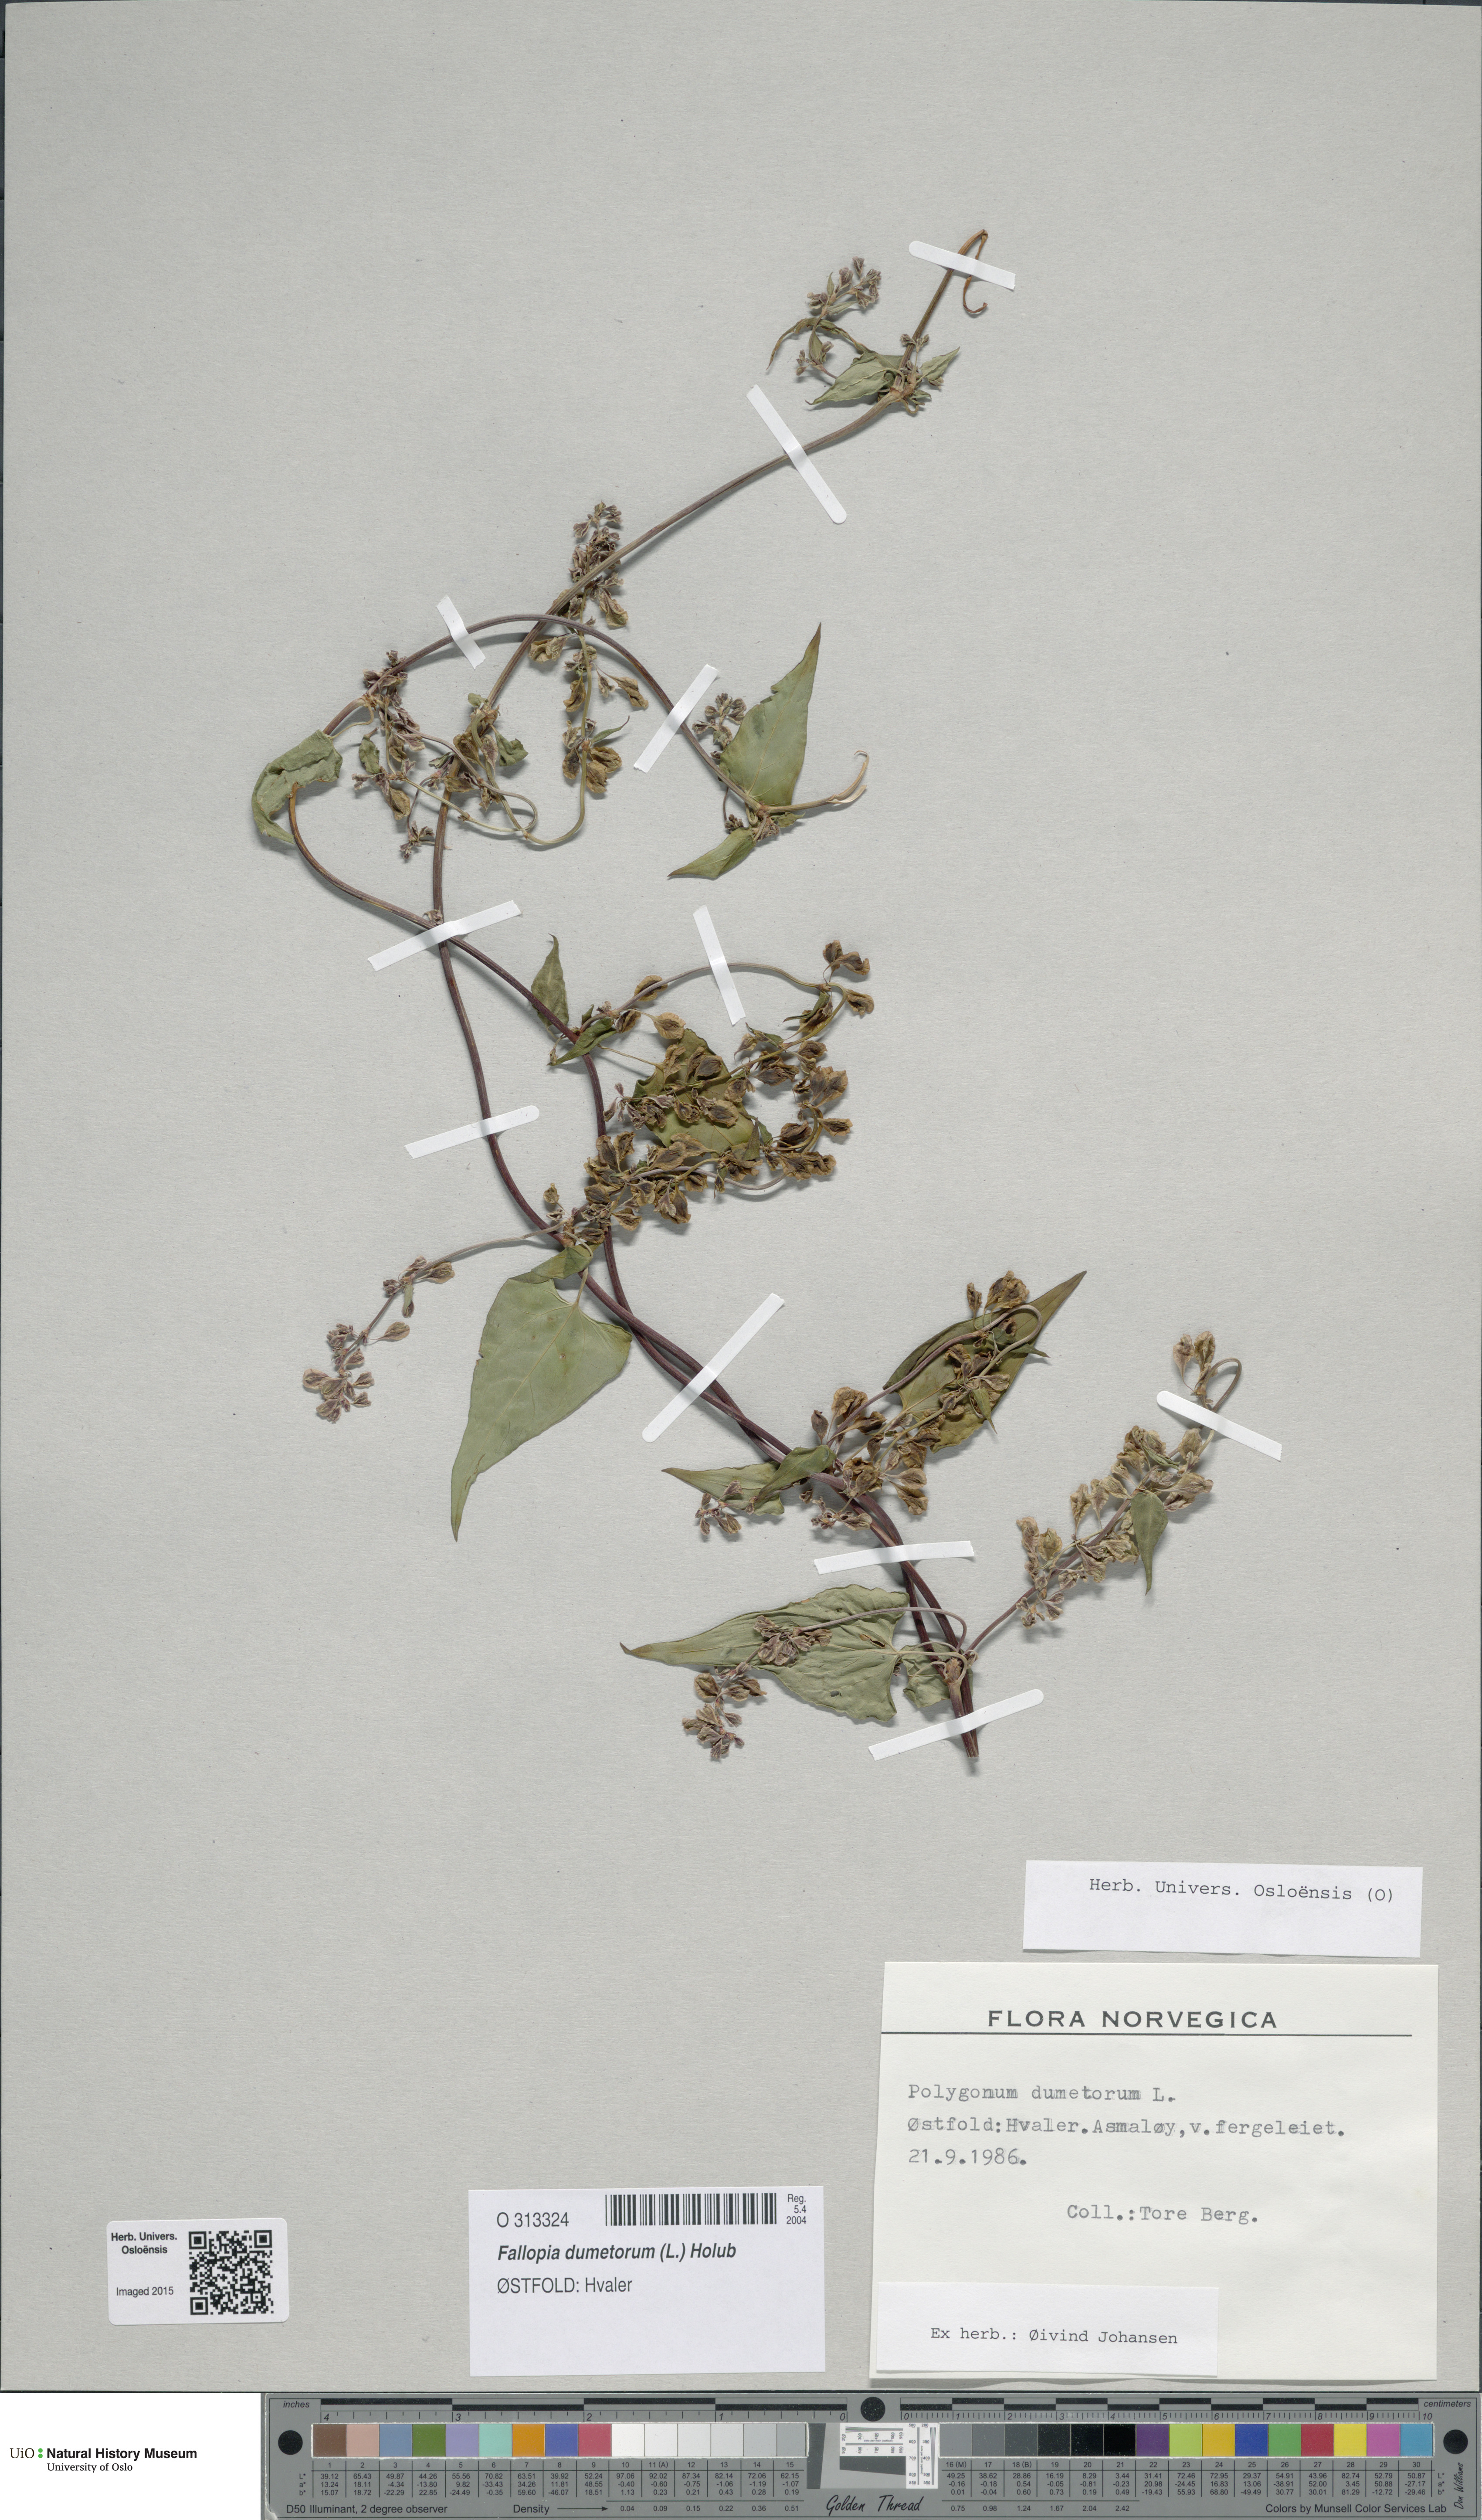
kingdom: Plantae
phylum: Tracheophyta
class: Magnoliopsida
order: Caryophyllales
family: Polygonaceae
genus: Fallopia
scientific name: Fallopia dumetorum
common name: Copse-bindweed
